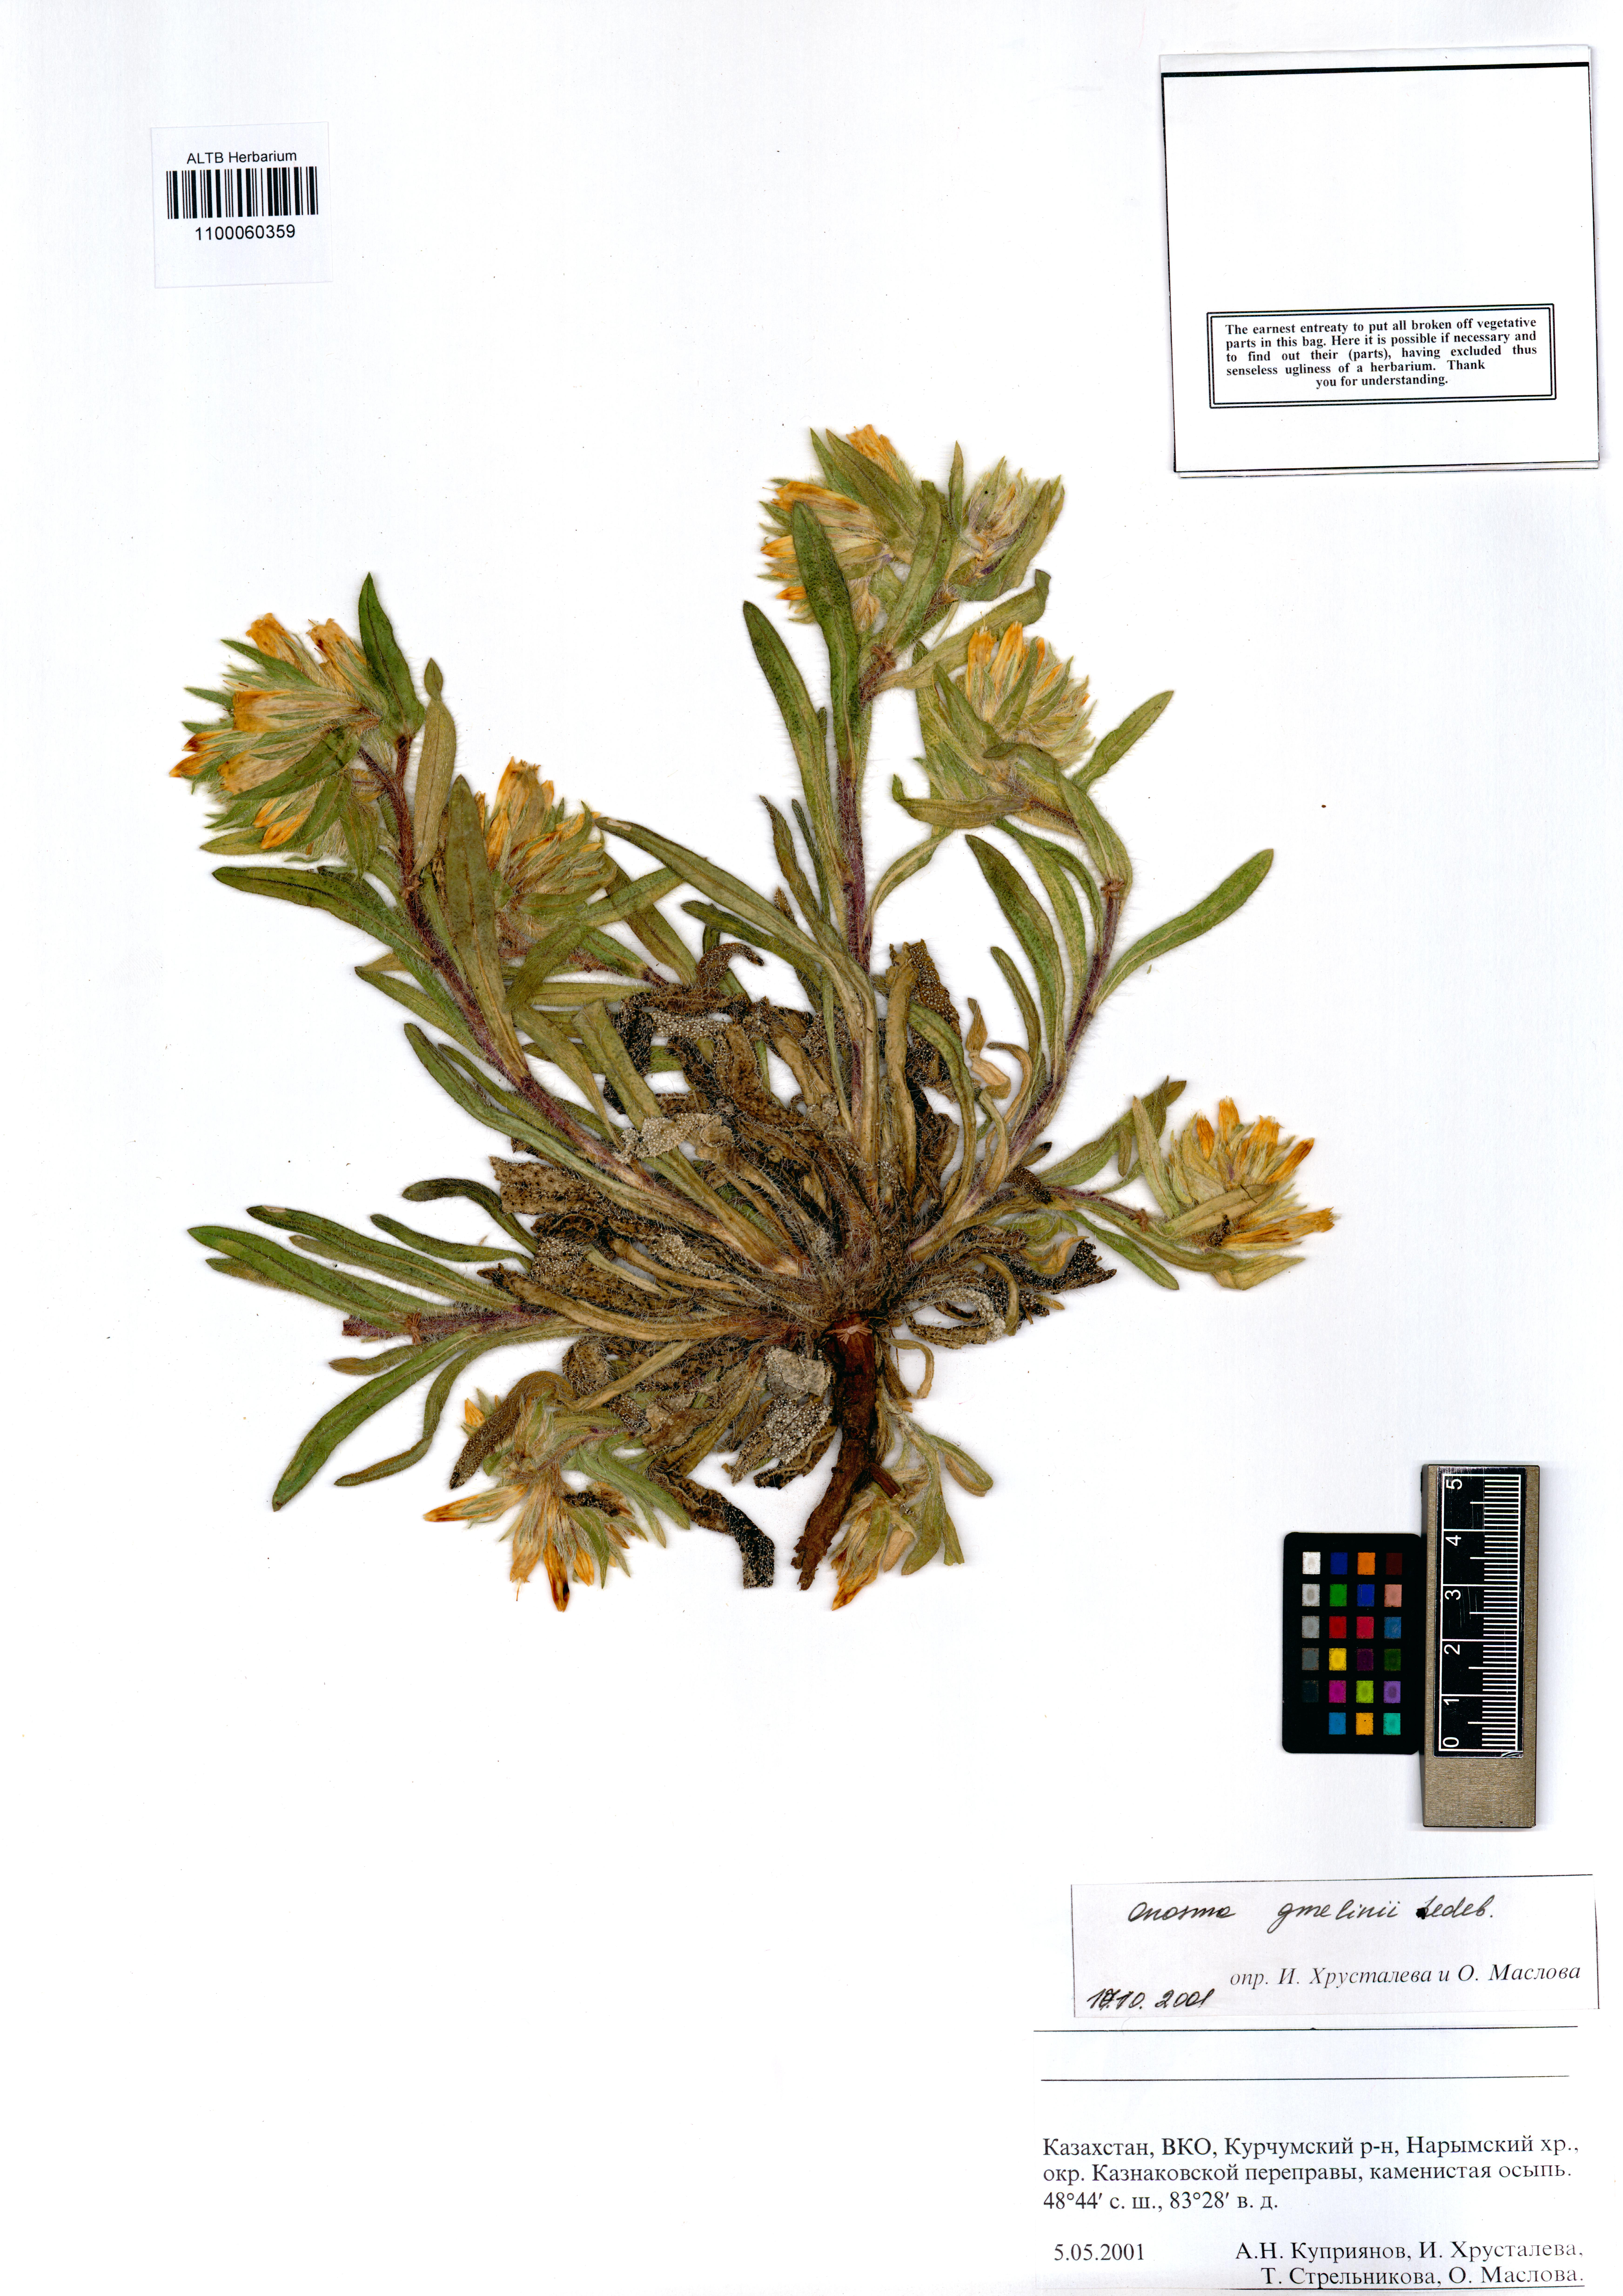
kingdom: Plantae
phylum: Tracheophyta
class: Magnoliopsida
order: Boraginales
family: Boraginaceae
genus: Onosma
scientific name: Onosma gmelinii
